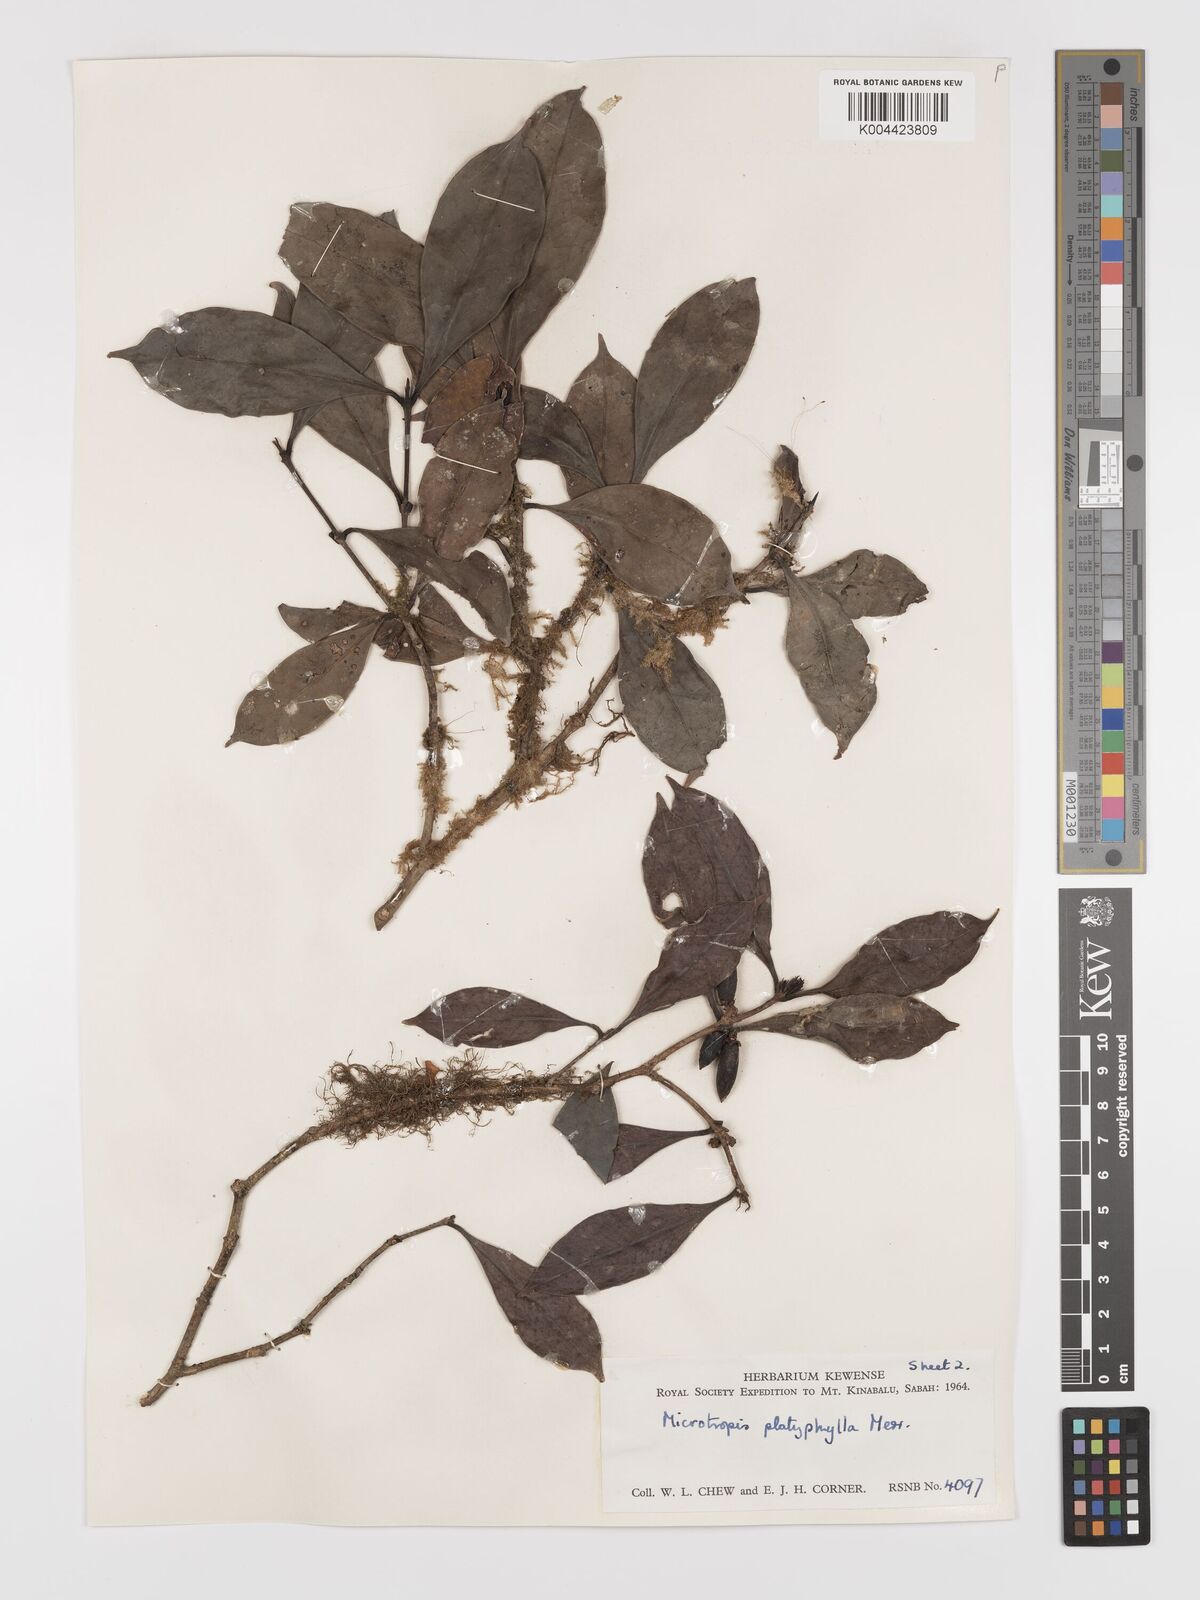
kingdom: Plantae
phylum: Tracheophyta
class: Magnoliopsida
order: Celastrales
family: Celastraceae
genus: Microtropis
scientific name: Microtropis platyphylla
